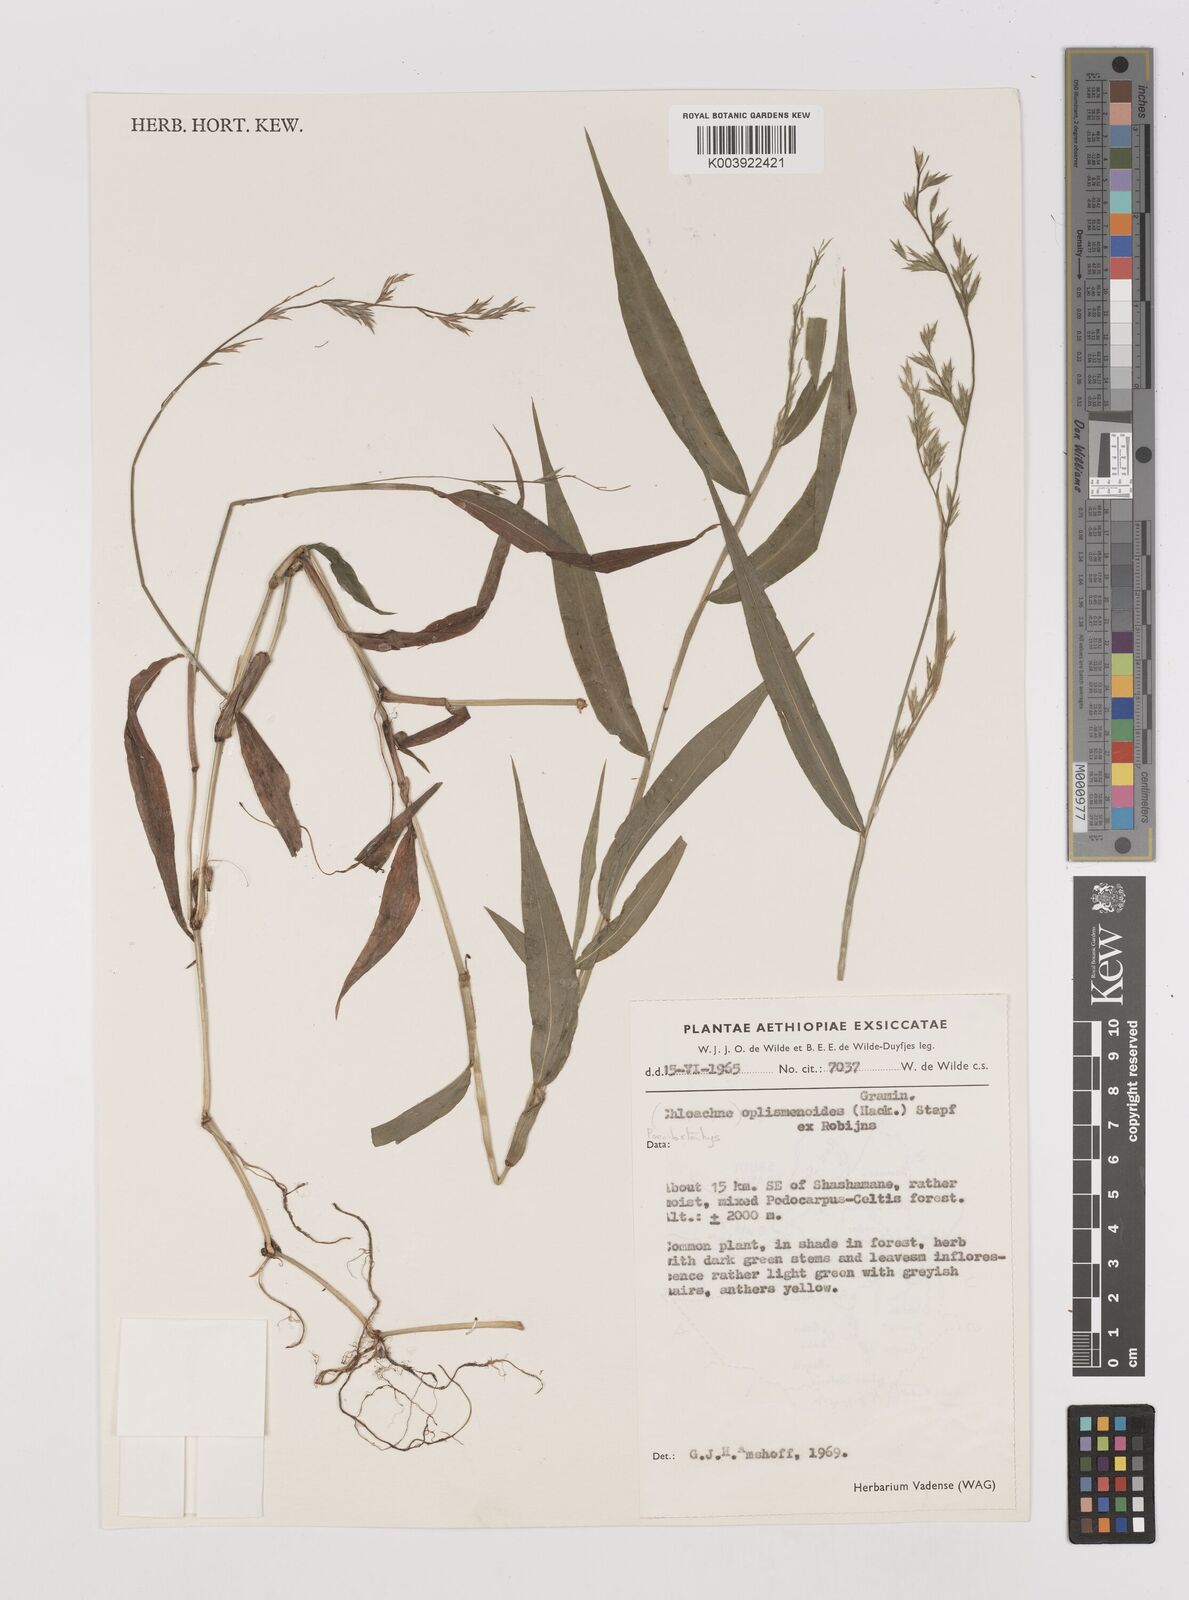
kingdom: Plantae
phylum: Tracheophyta
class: Liliopsida
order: Poales
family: Poaceae
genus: Poecilostachys
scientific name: Poecilostachys oplismenoides
